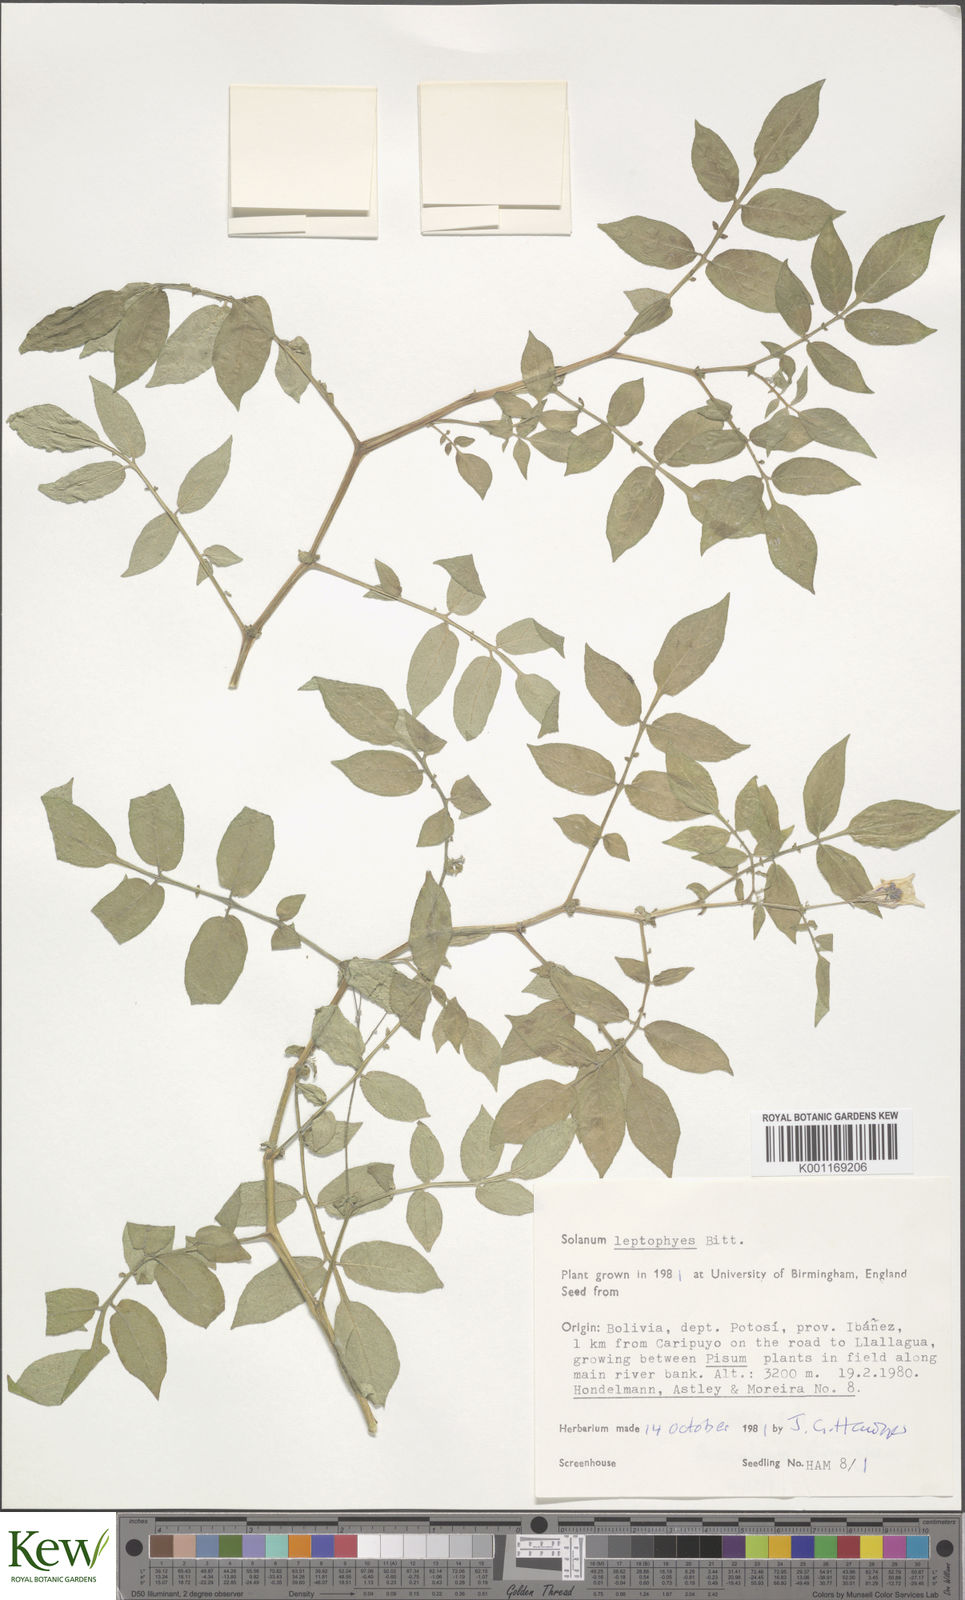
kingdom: Plantae
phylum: Tracheophyta
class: Magnoliopsida
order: Solanales
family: Solanaceae
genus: Solanum
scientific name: Solanum brevicaule
